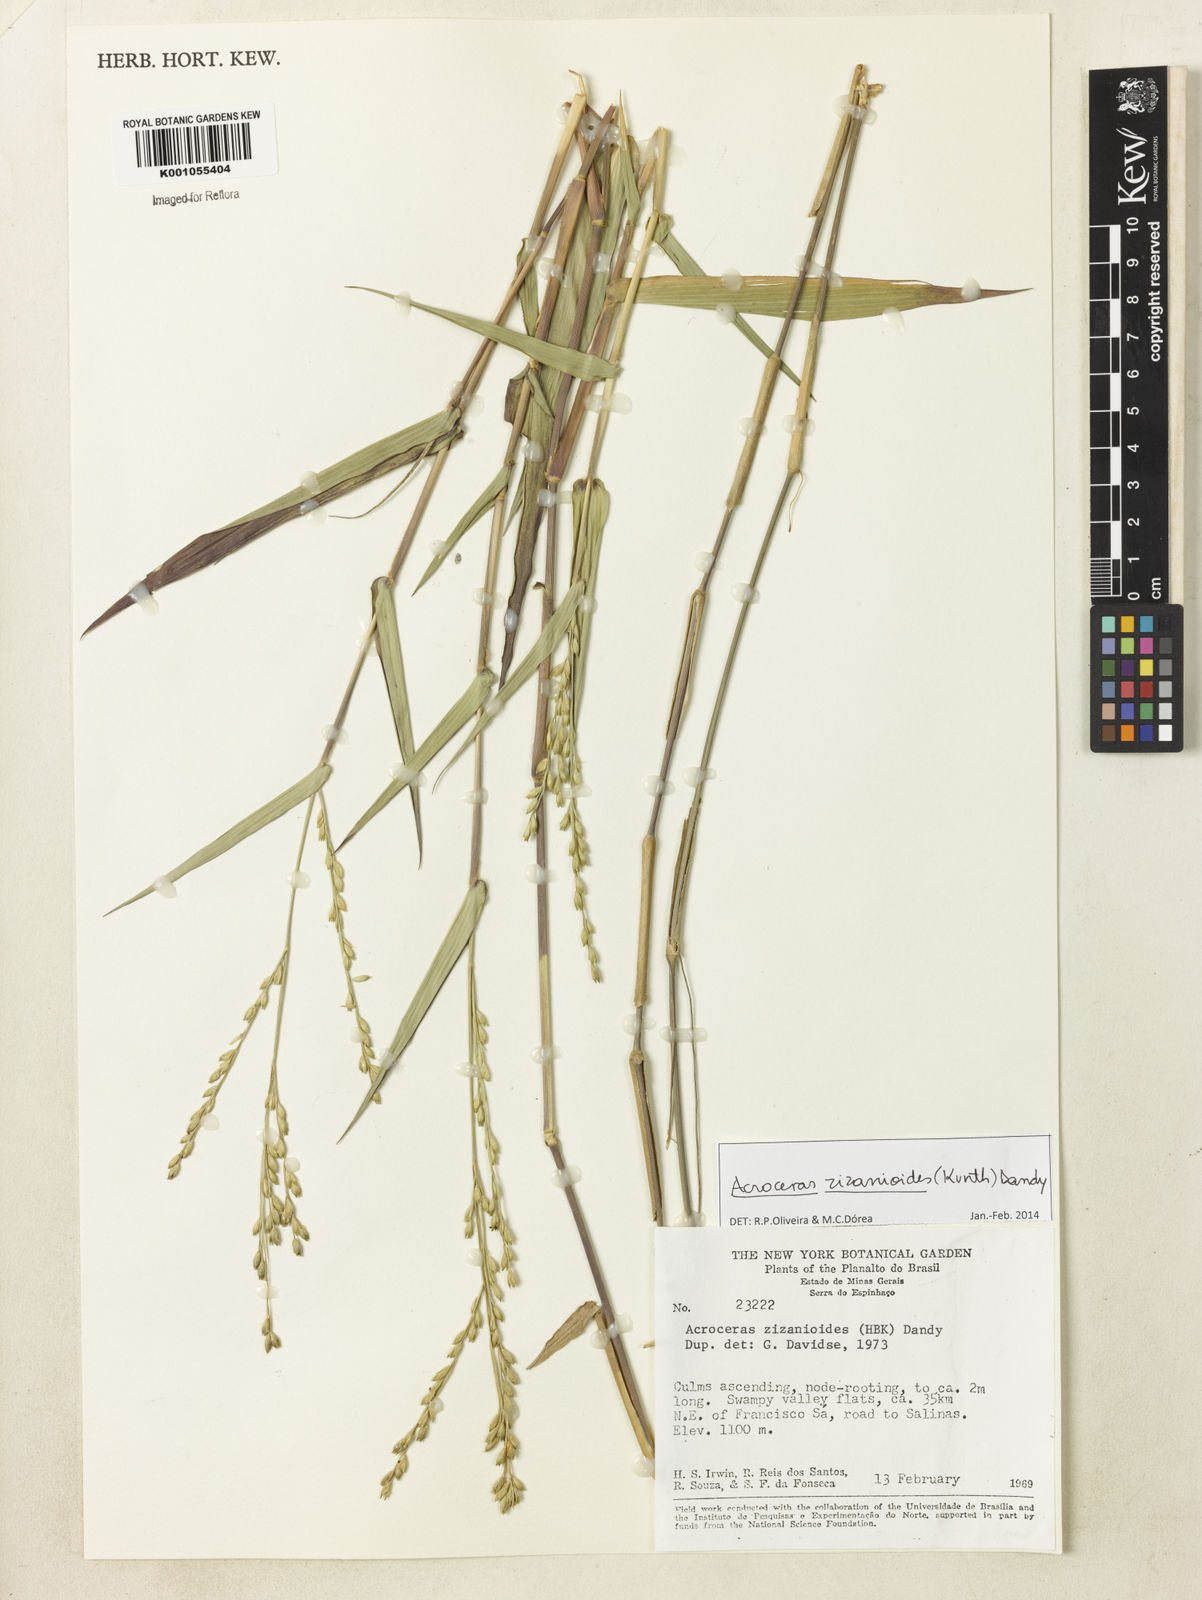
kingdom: Plantae
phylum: Tracheophyta
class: Liliopsida
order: Poales
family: Poaceae
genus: Acroceras
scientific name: Acroceras zizanioides
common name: Oat grass
